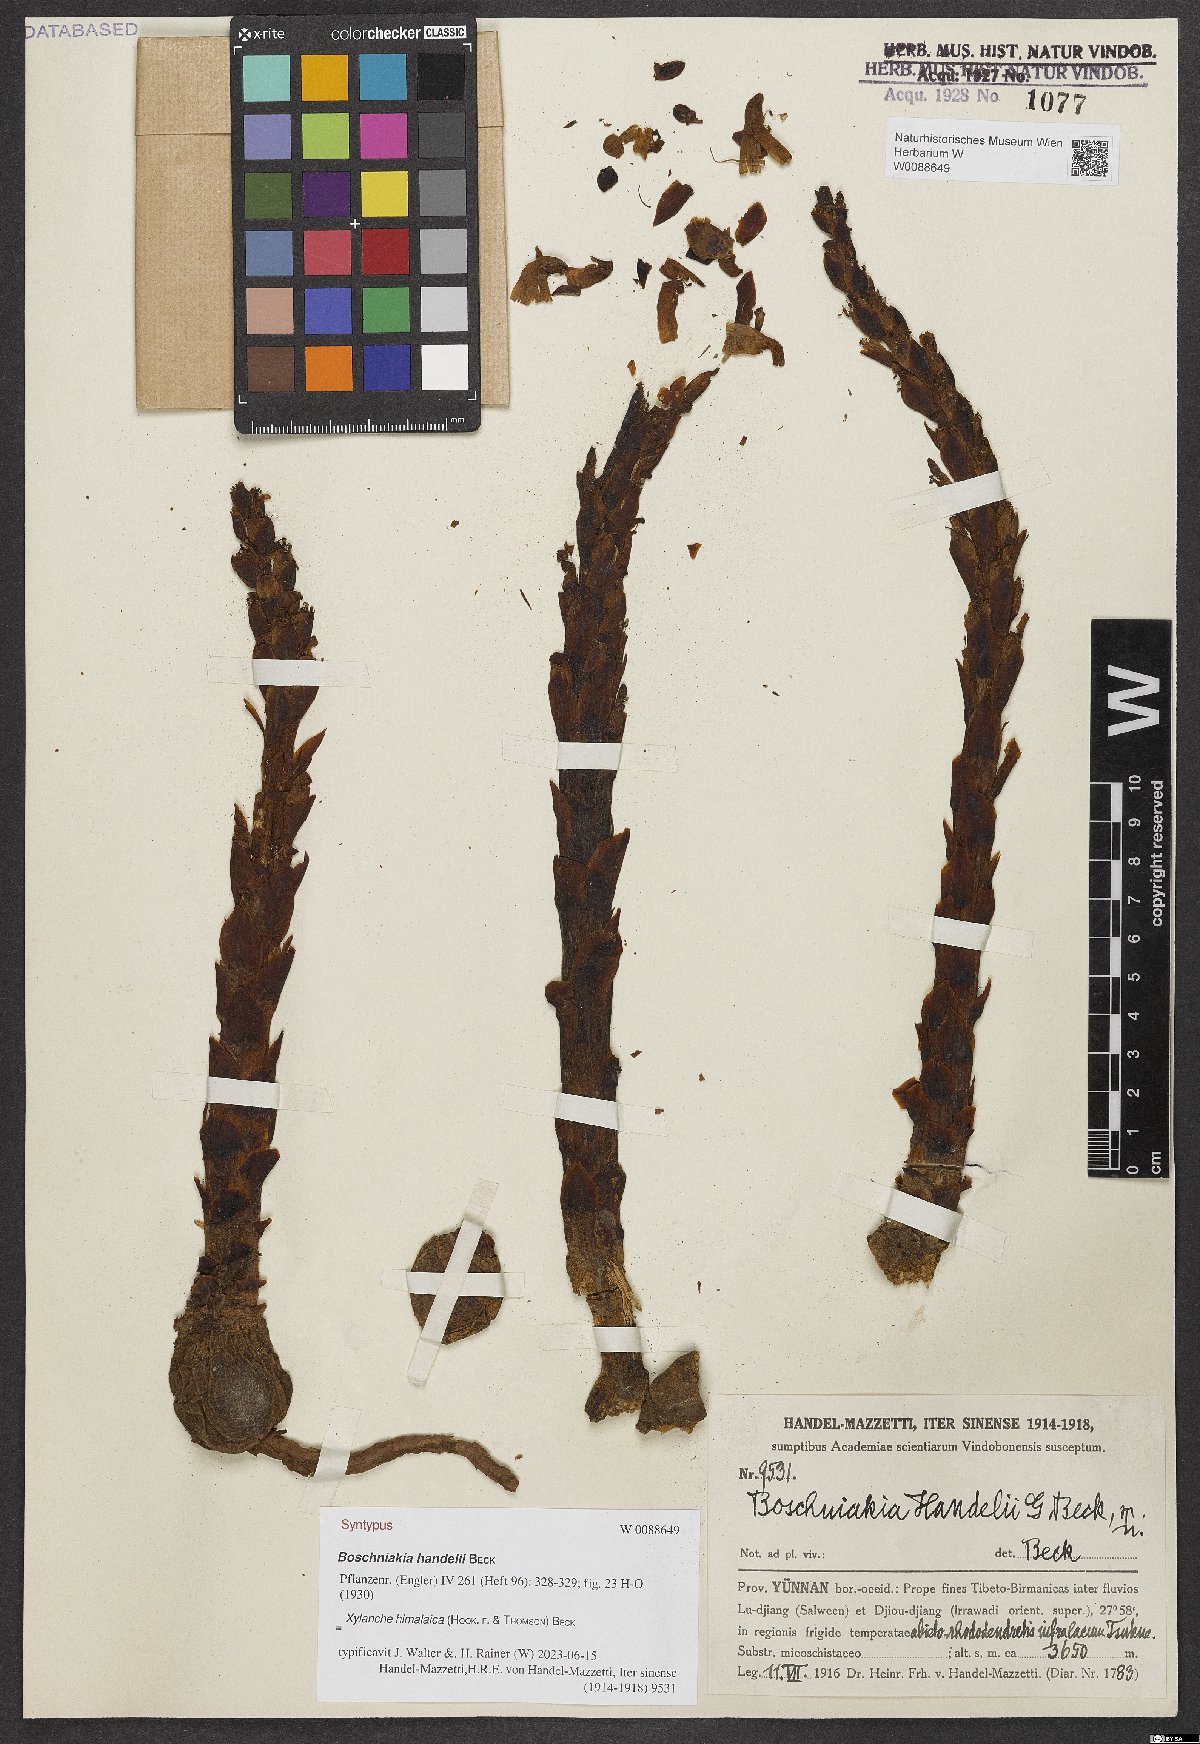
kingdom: Plantae
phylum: Tracheophyta
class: Magnoliopsida
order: Lamiales
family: Orobanchaceae
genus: Boschniakia
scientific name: Boschniakia himalaica
